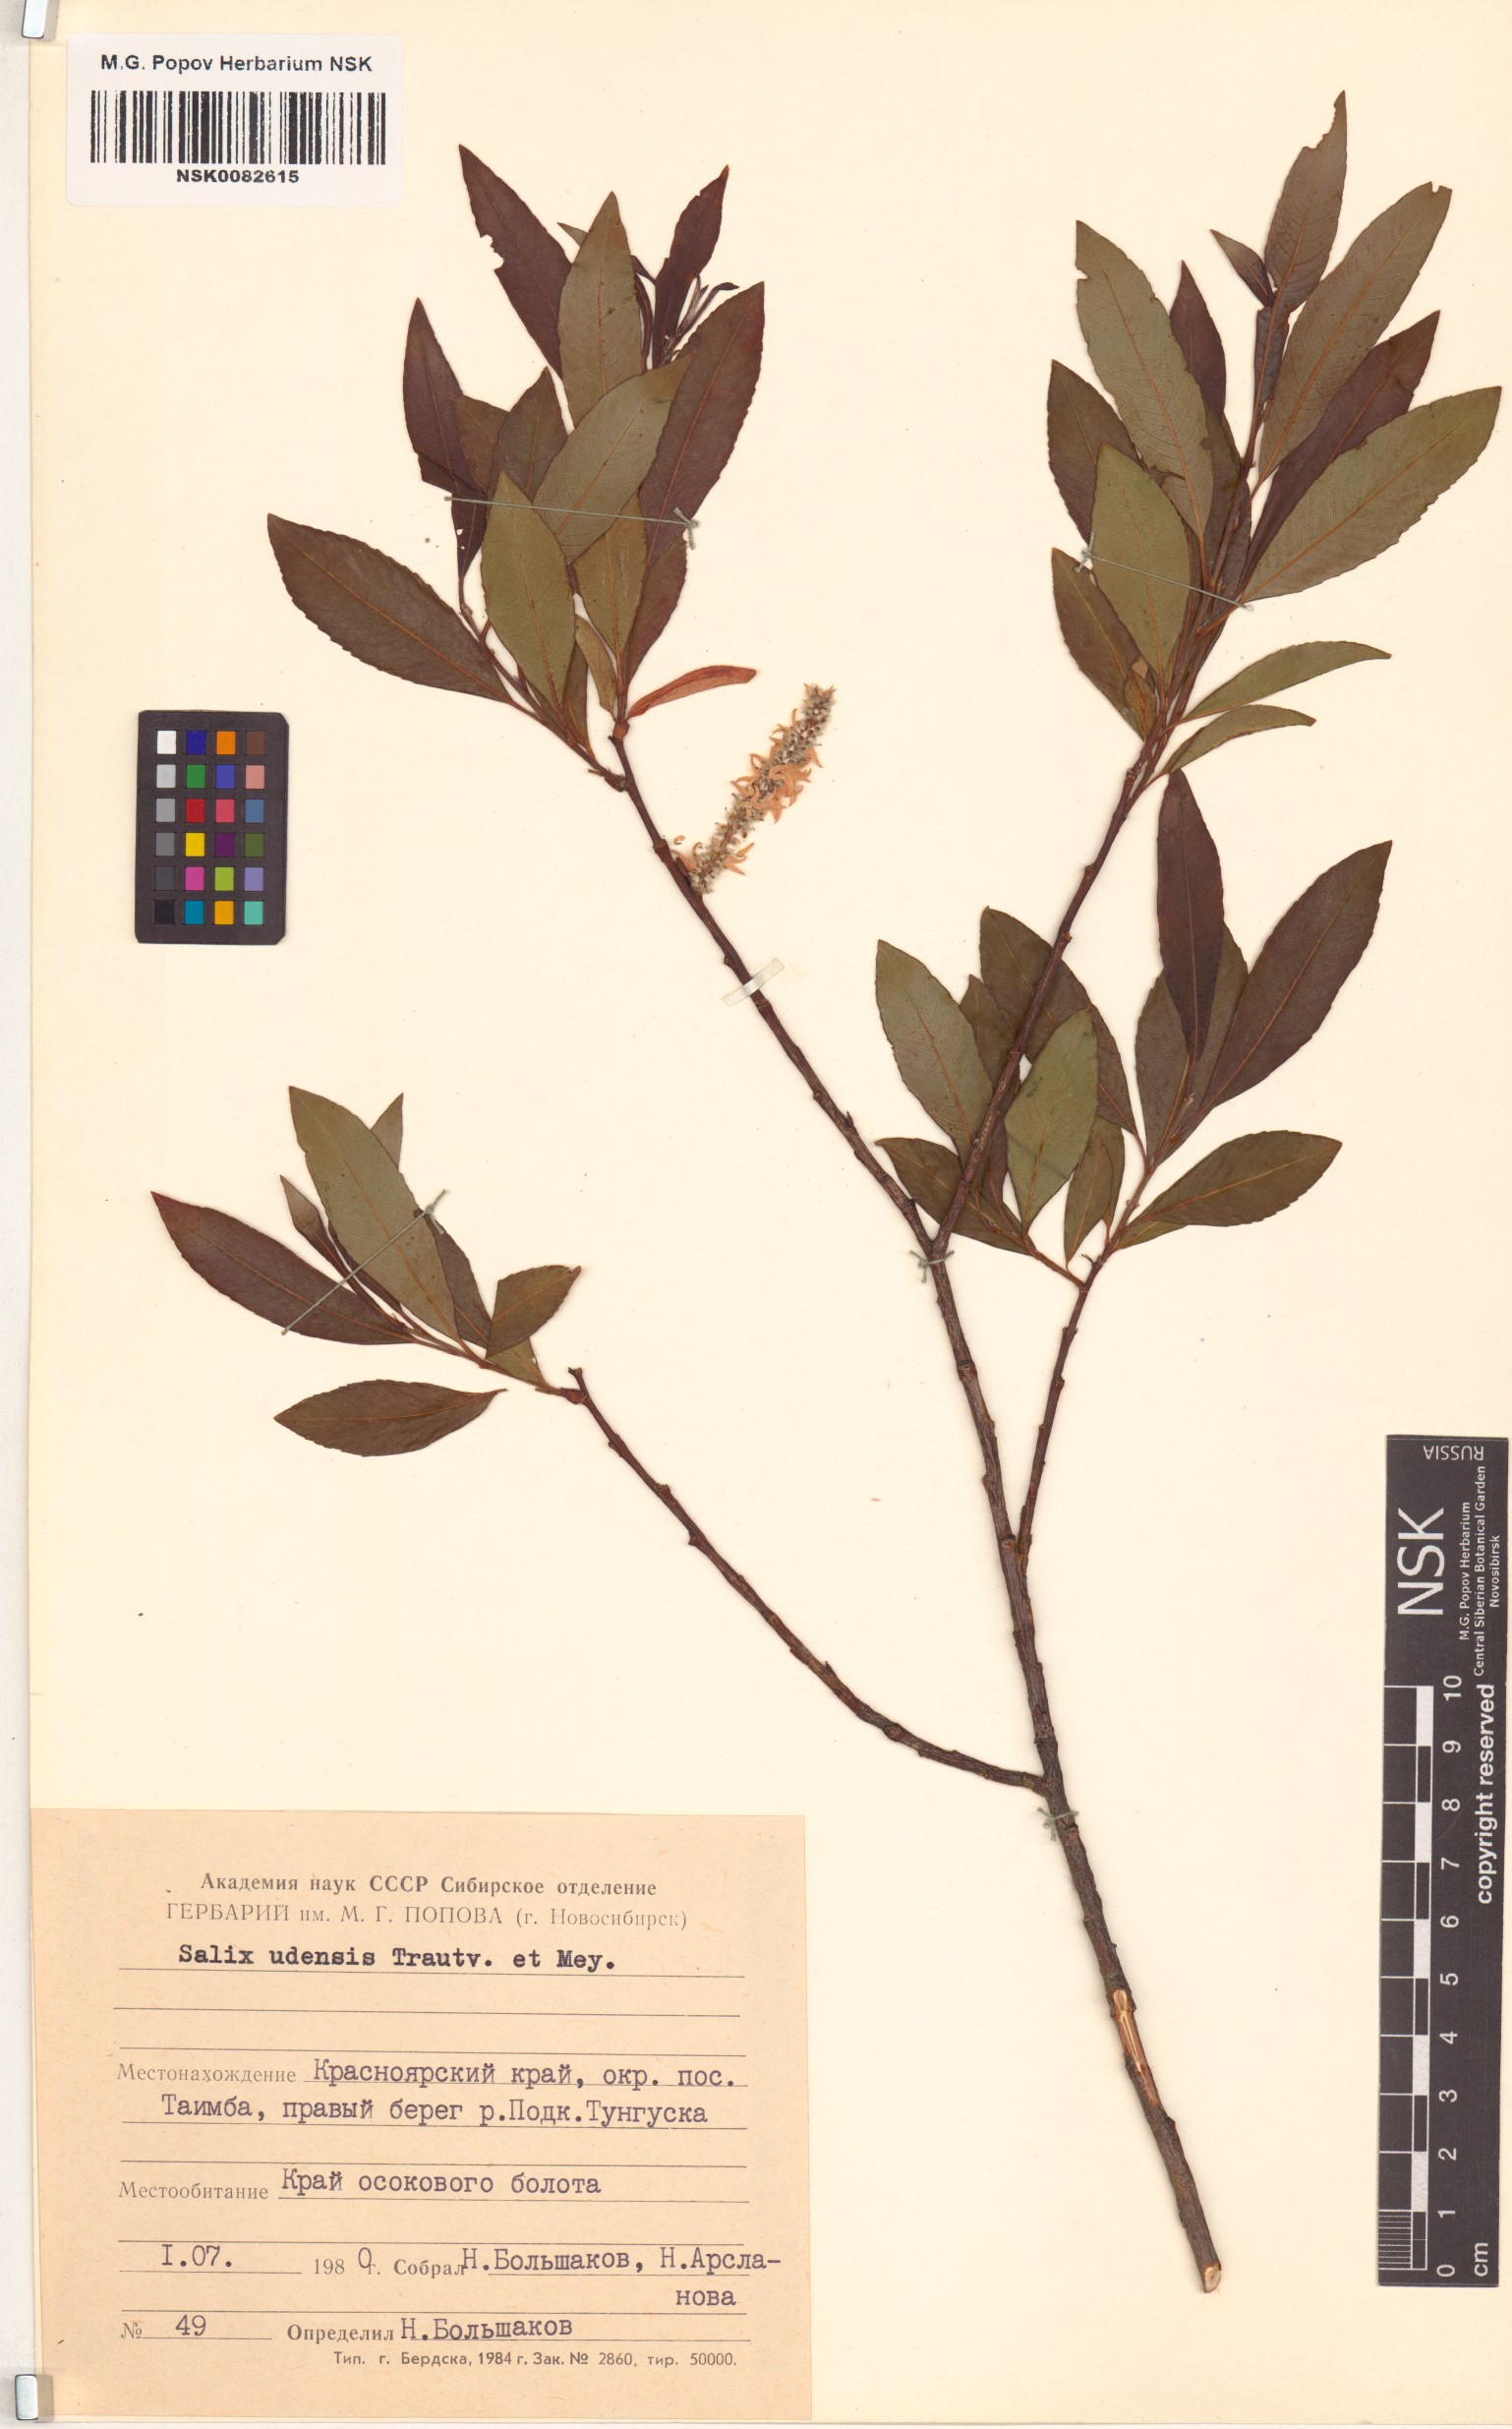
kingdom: Plantae
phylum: Tracheophyta
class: Magnoliopsida
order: Malpighiales
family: Salicaceae
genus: Salix
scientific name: Salix udensis
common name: Sachalin willow
